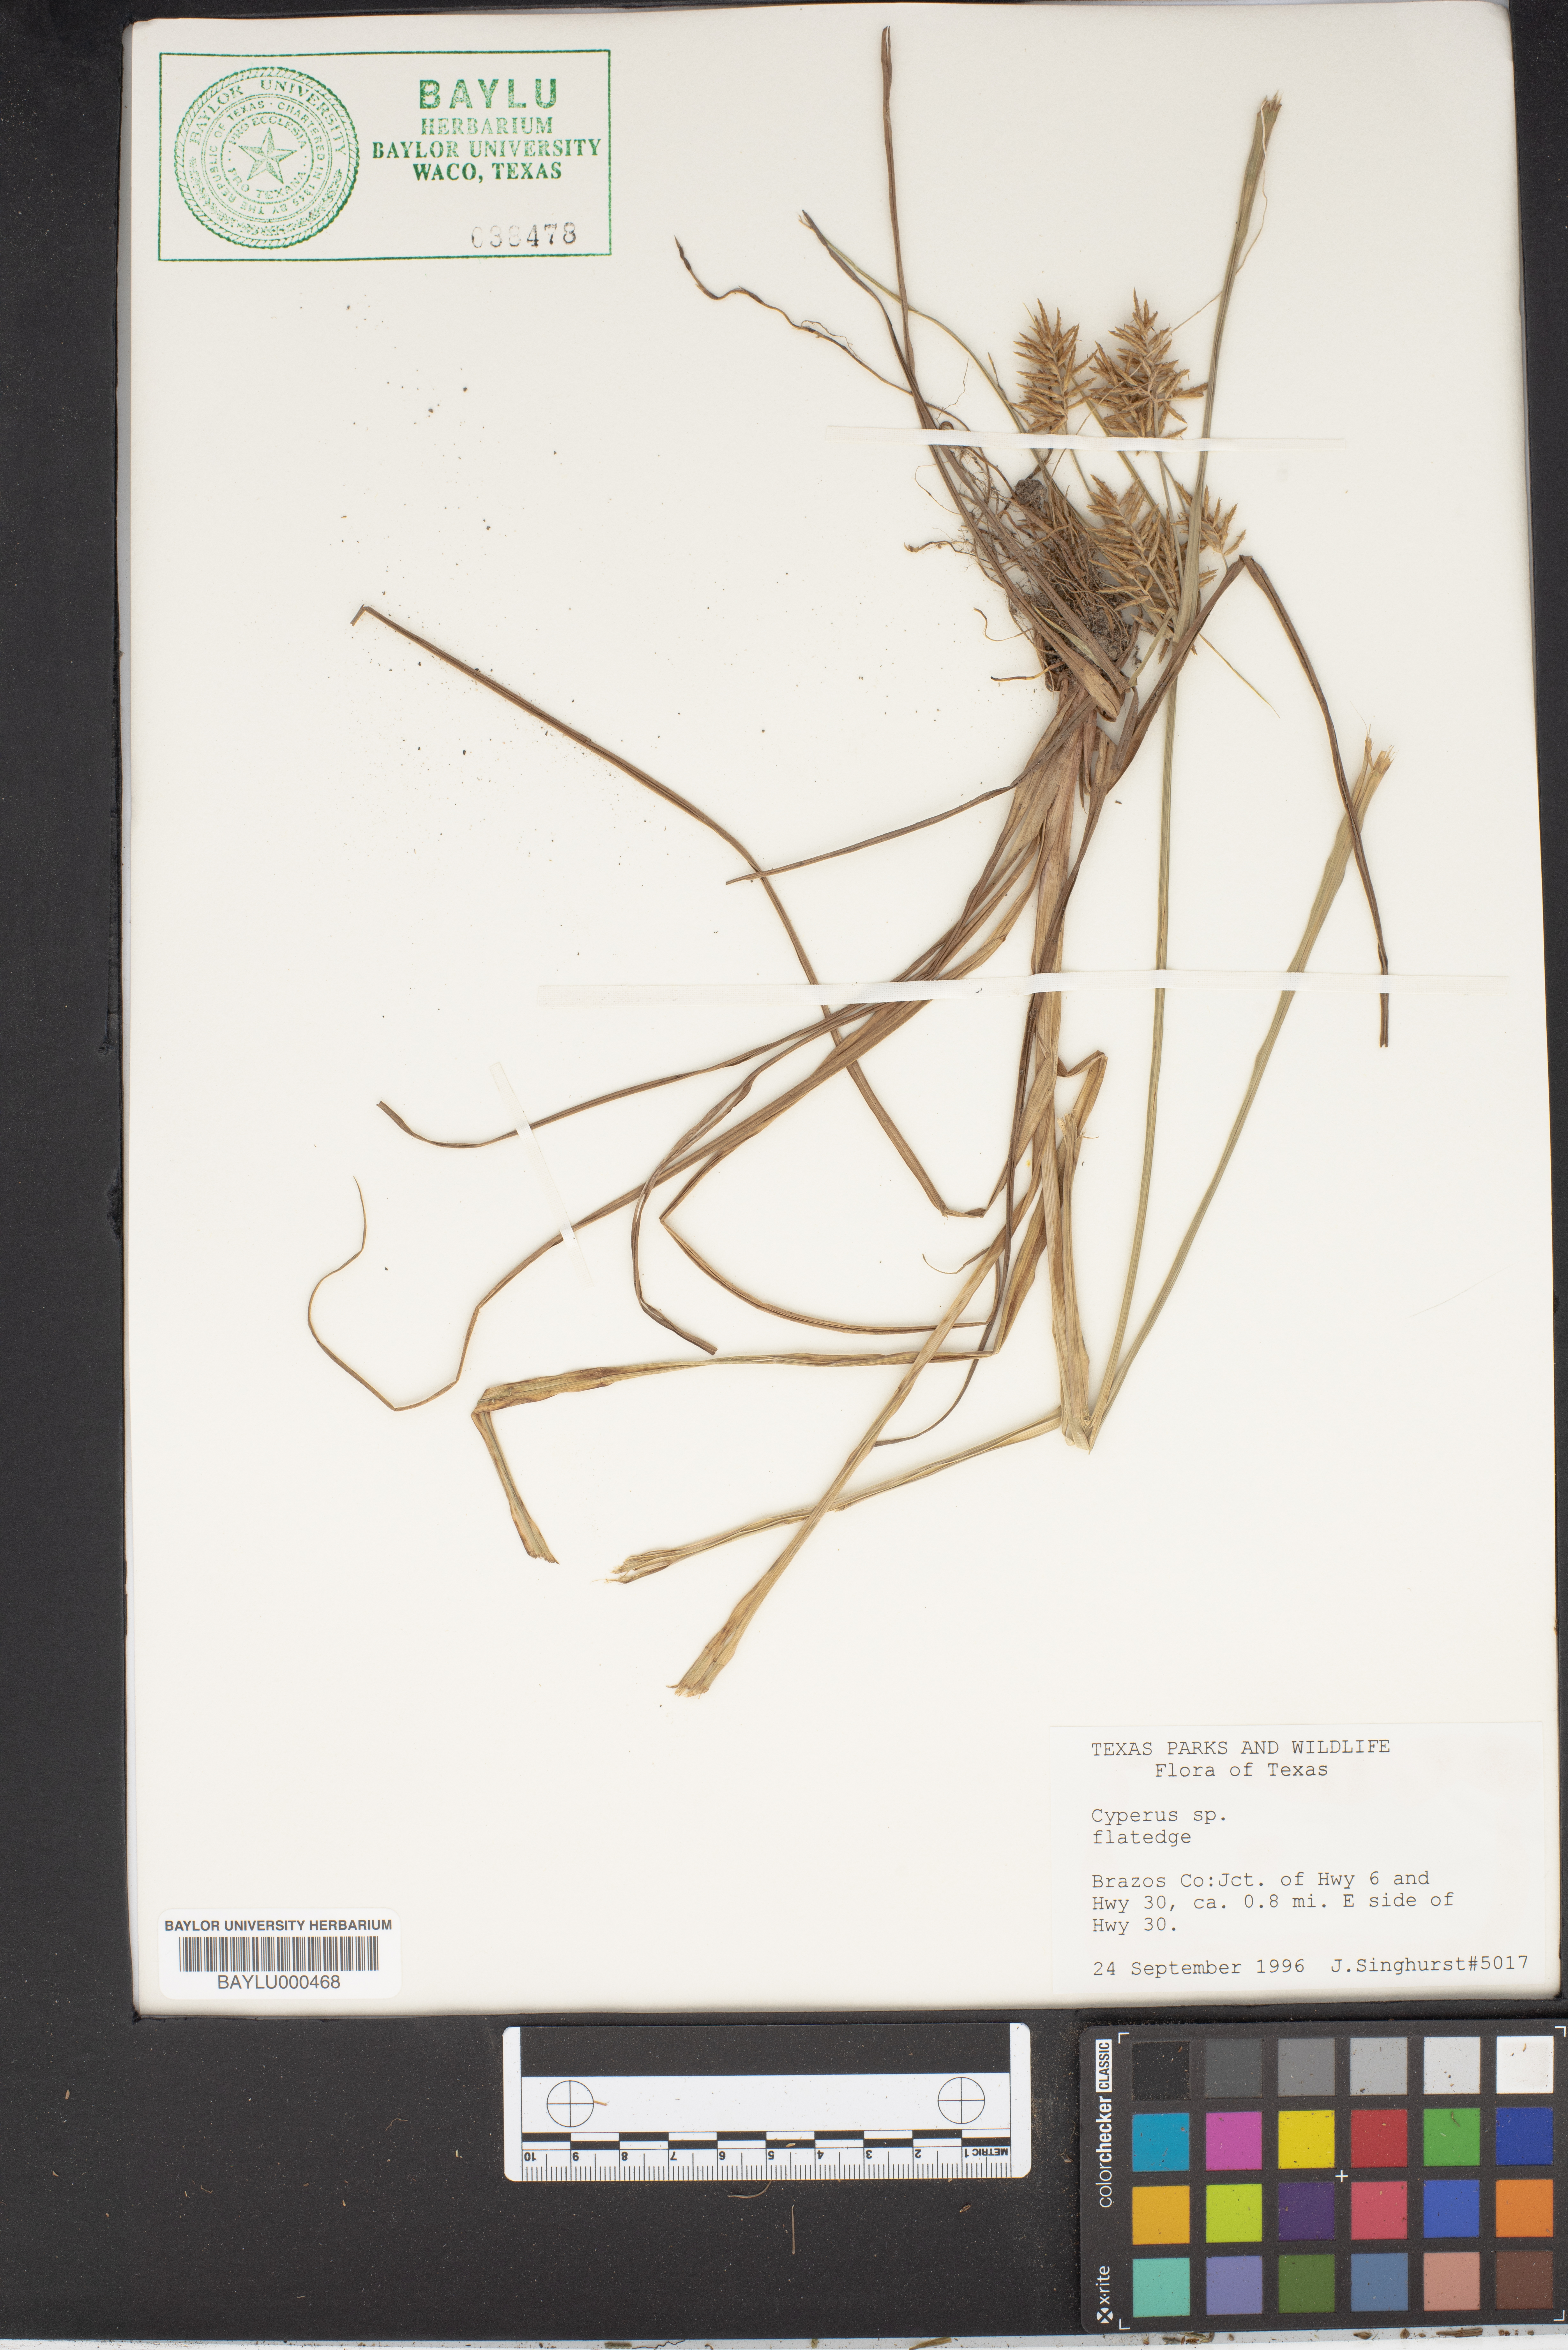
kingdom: Plantae
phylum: Tracheophyta
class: Liliopsida
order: Poales
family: Cyperaceae
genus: Cyperus
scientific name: Cyperus
